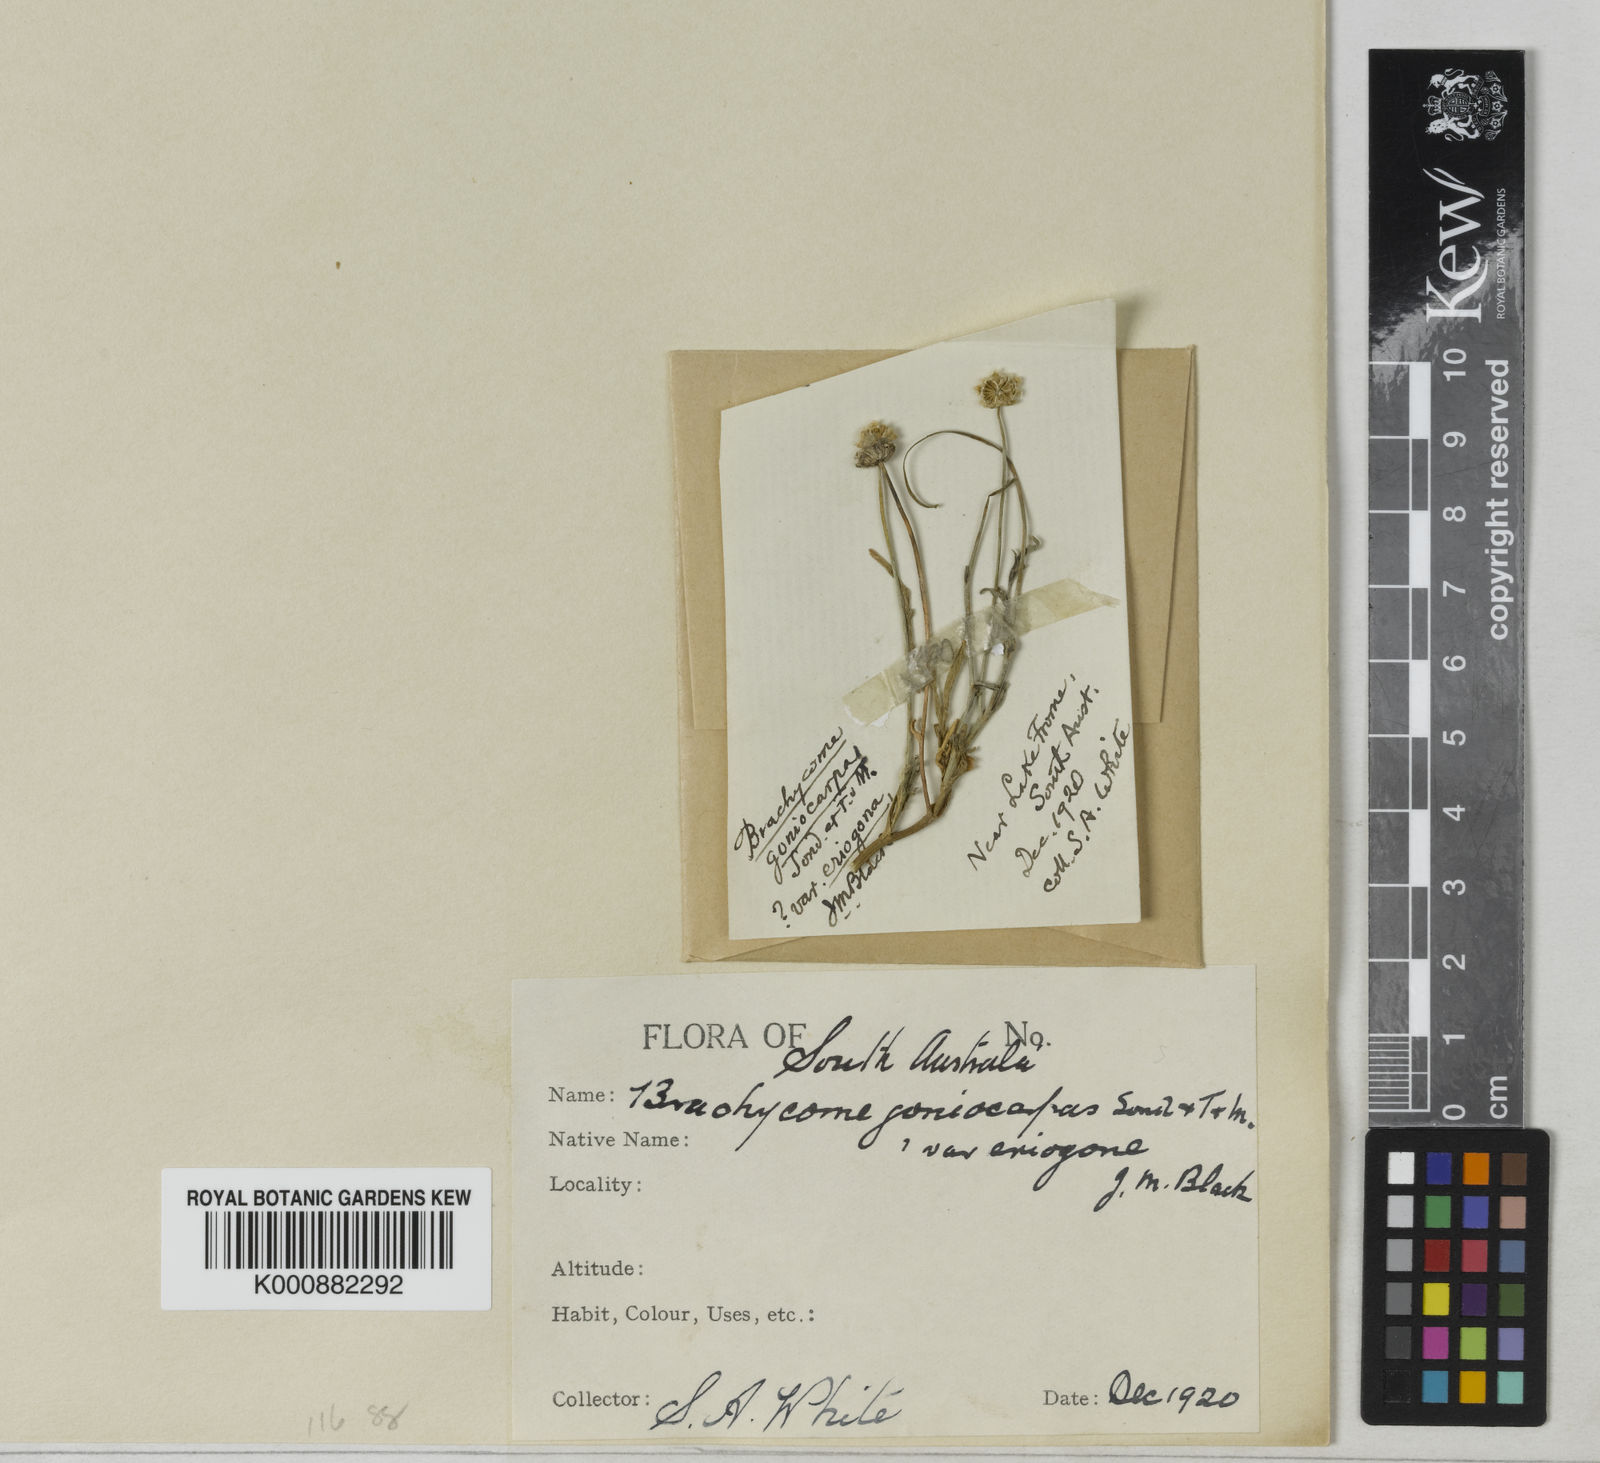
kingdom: Plantae
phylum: Tracheophyta
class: Magnoliopsida
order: Asterales
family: Asteraceae
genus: Brachyscome
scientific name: Brachyscome eriogona
